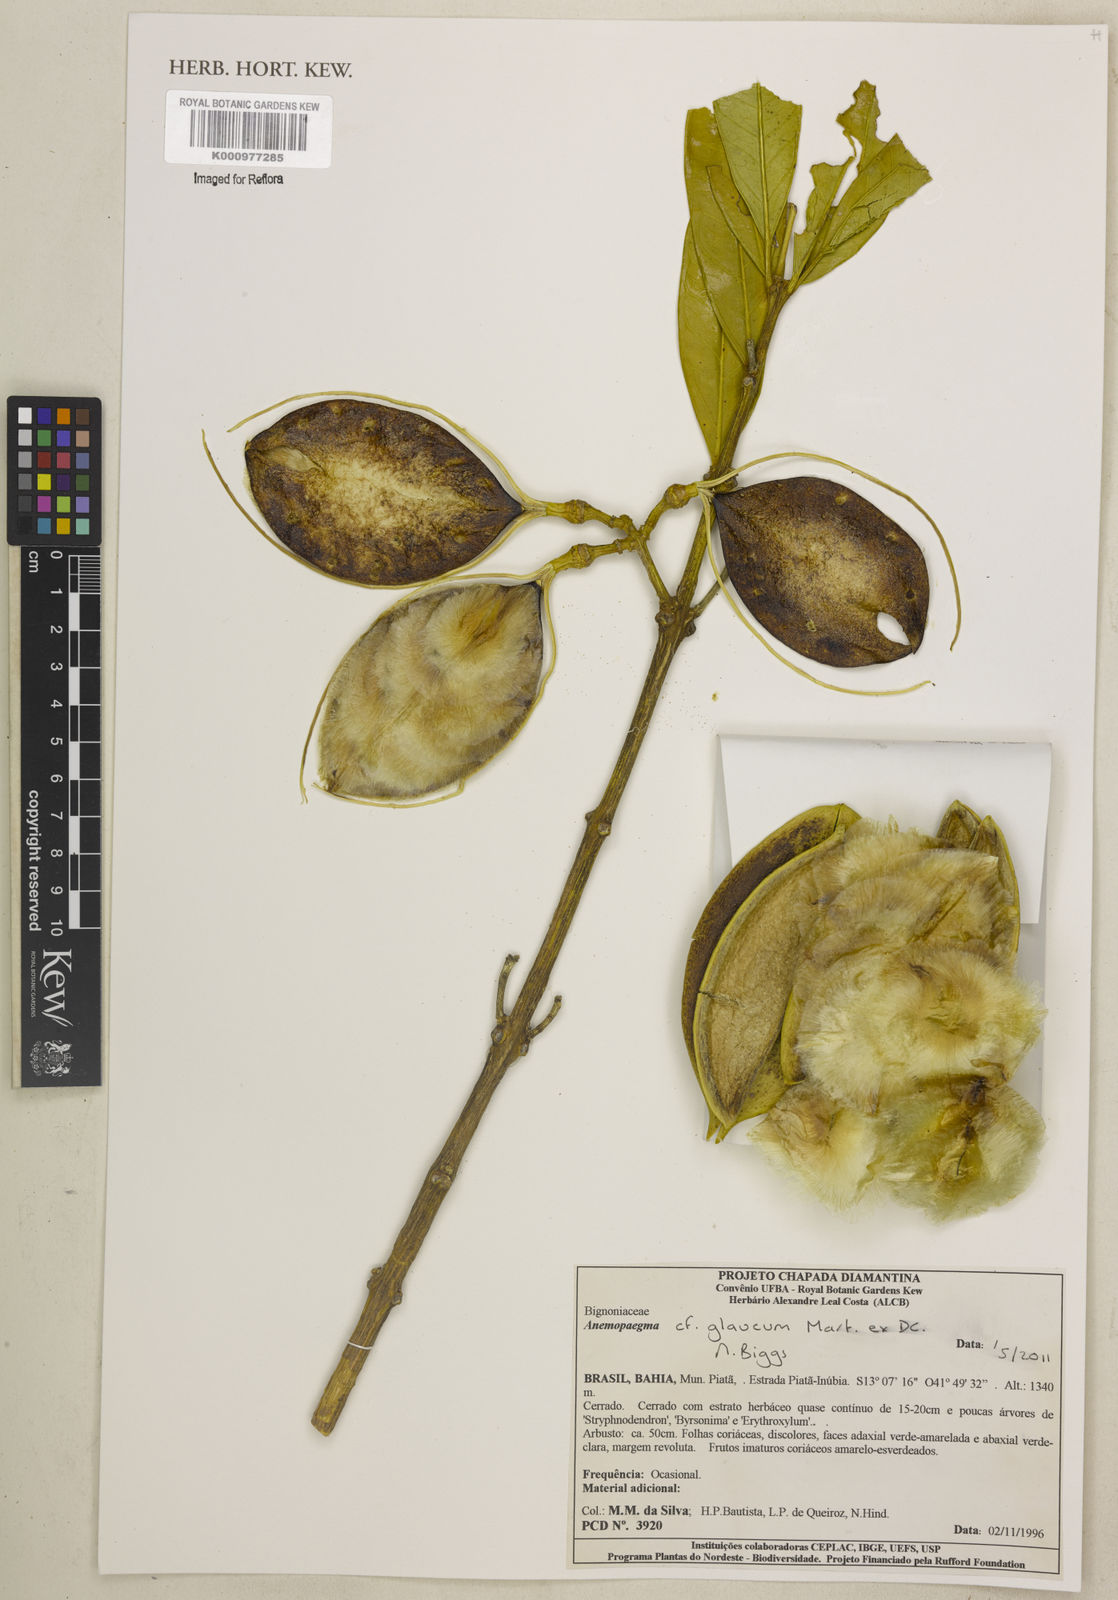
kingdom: Plantae
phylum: Tracheophyta
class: Magnoliopsida
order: Lamiales
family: Bignoniaceae
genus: Anemopaegma
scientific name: Anemopaegma glaucum
